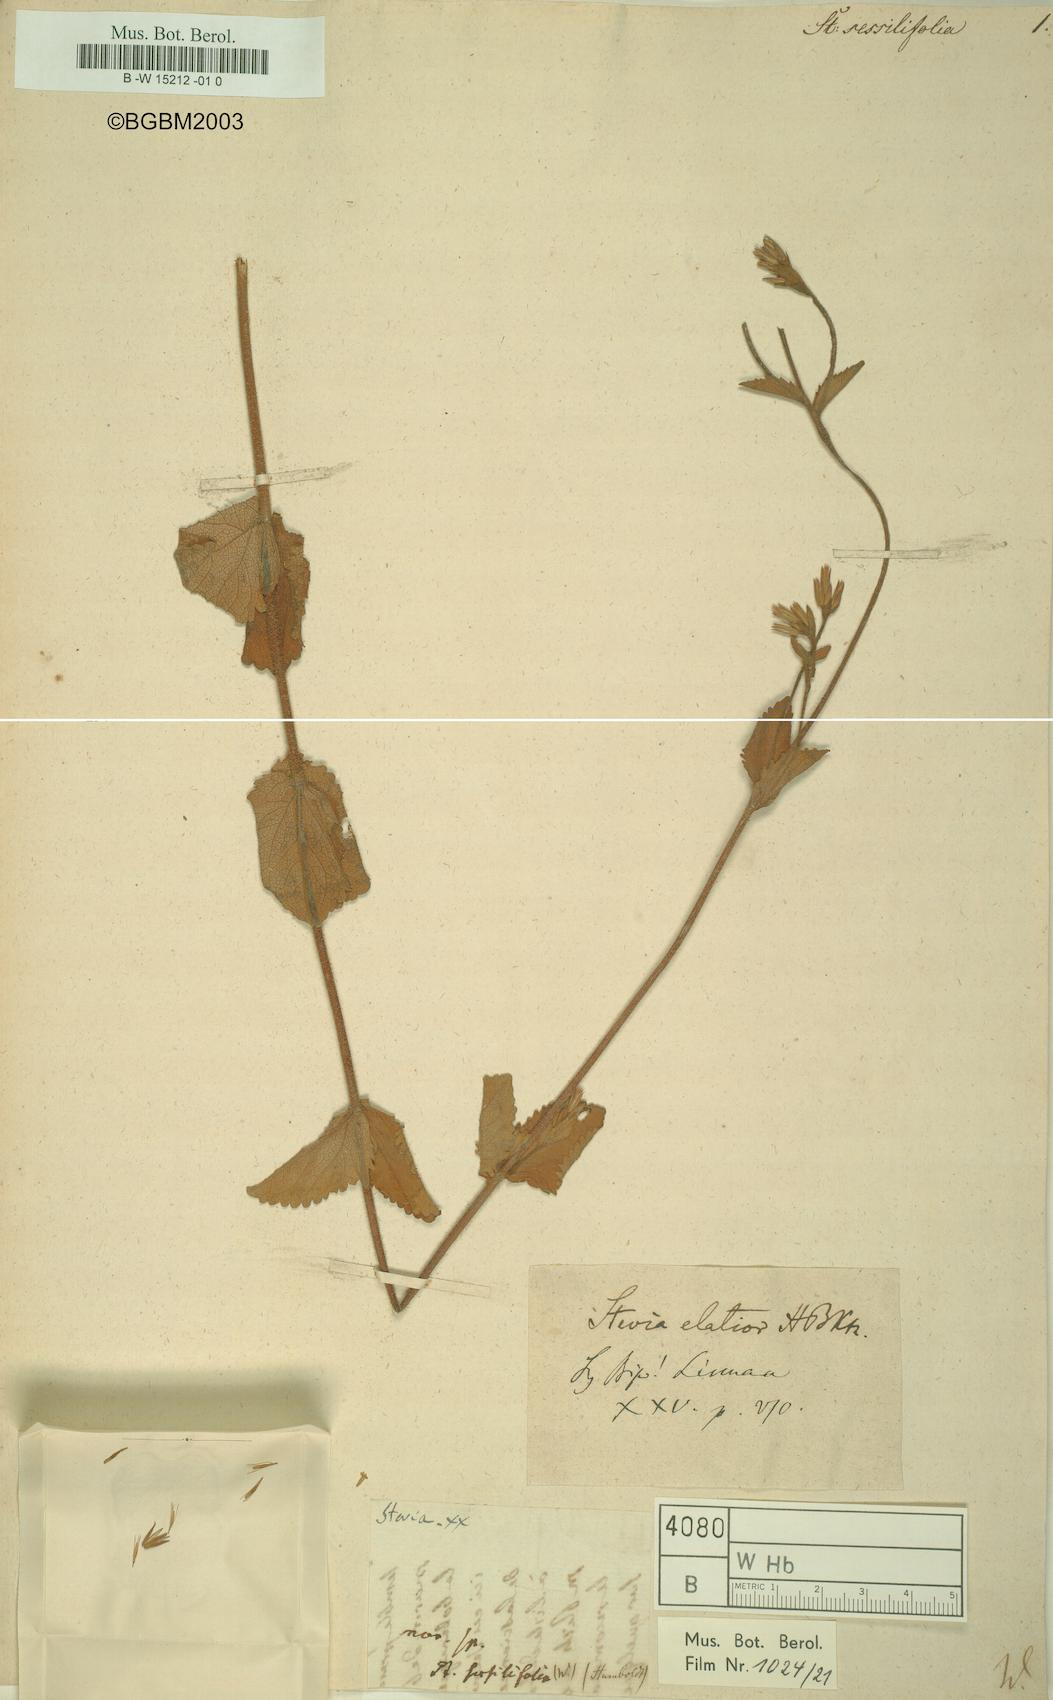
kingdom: Plantae
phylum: Tracheophyta
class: Magnoliopsida
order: Asterales
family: Asteraceae
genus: Stevia
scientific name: Stevia
